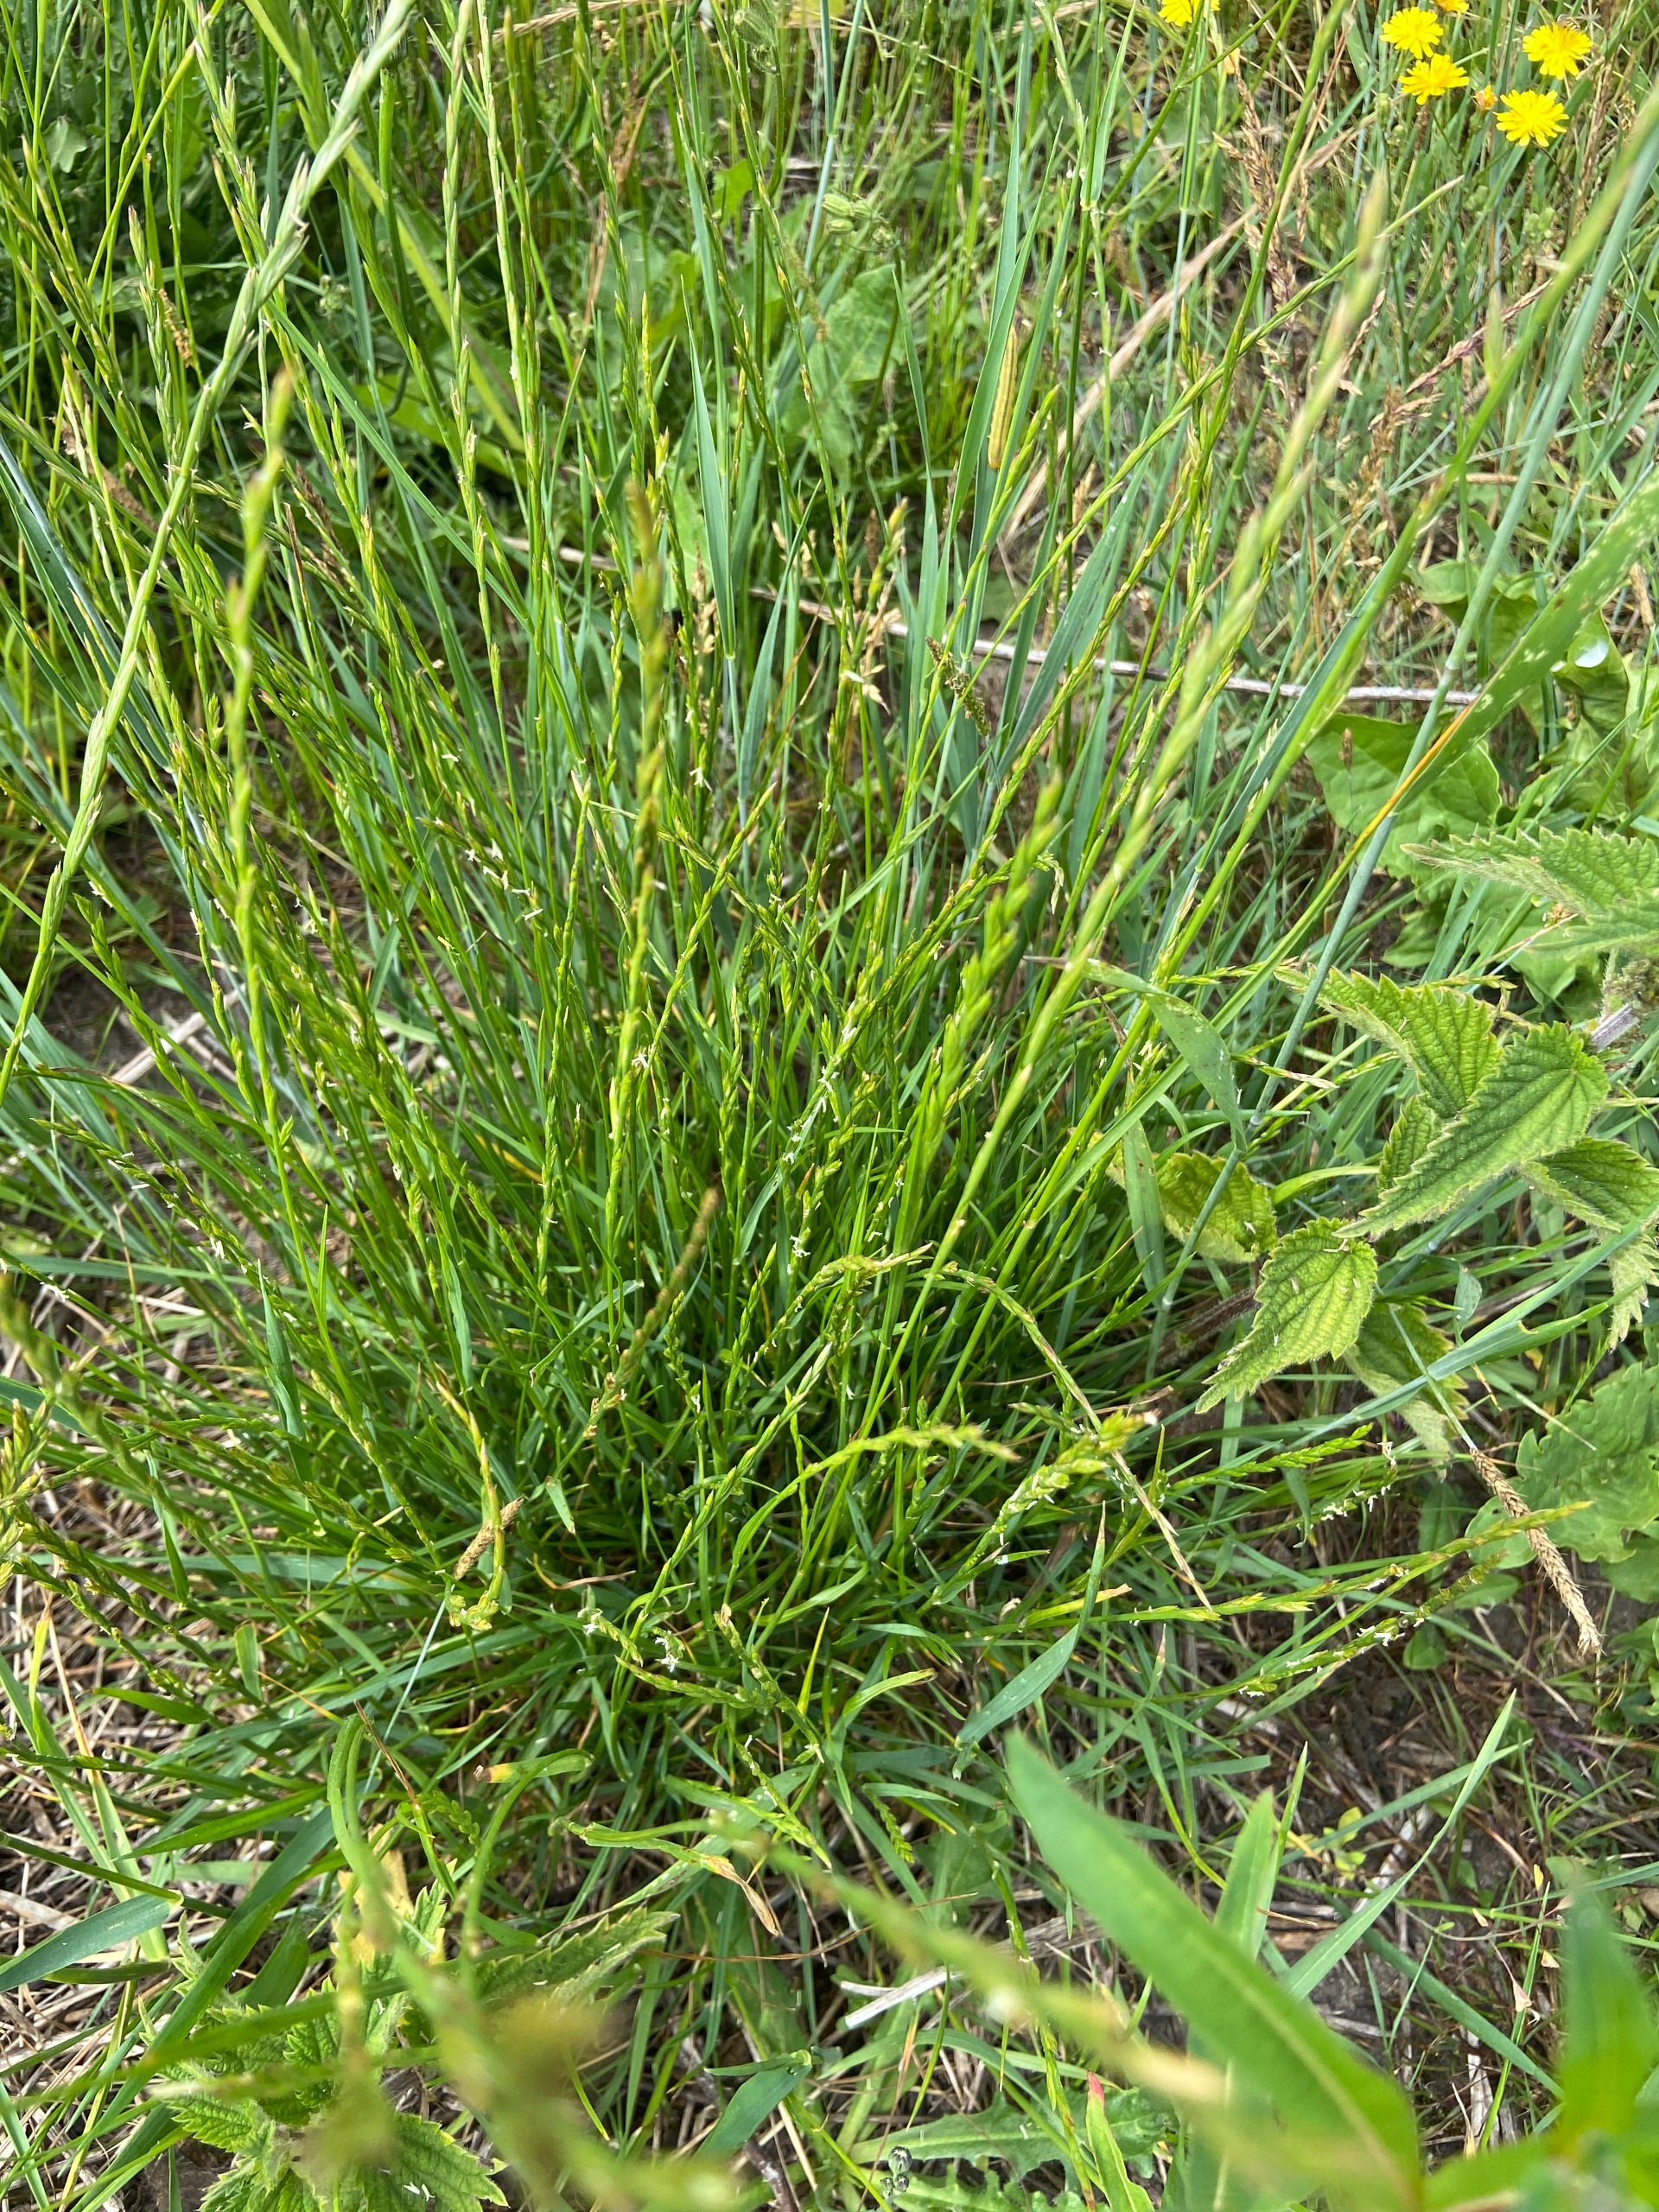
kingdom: Plantae
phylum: Tracheophyta
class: Liliopsida
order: Poales
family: Poaceae
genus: Lolium
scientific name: Lolium perenne
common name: Almindelig rajgræs
